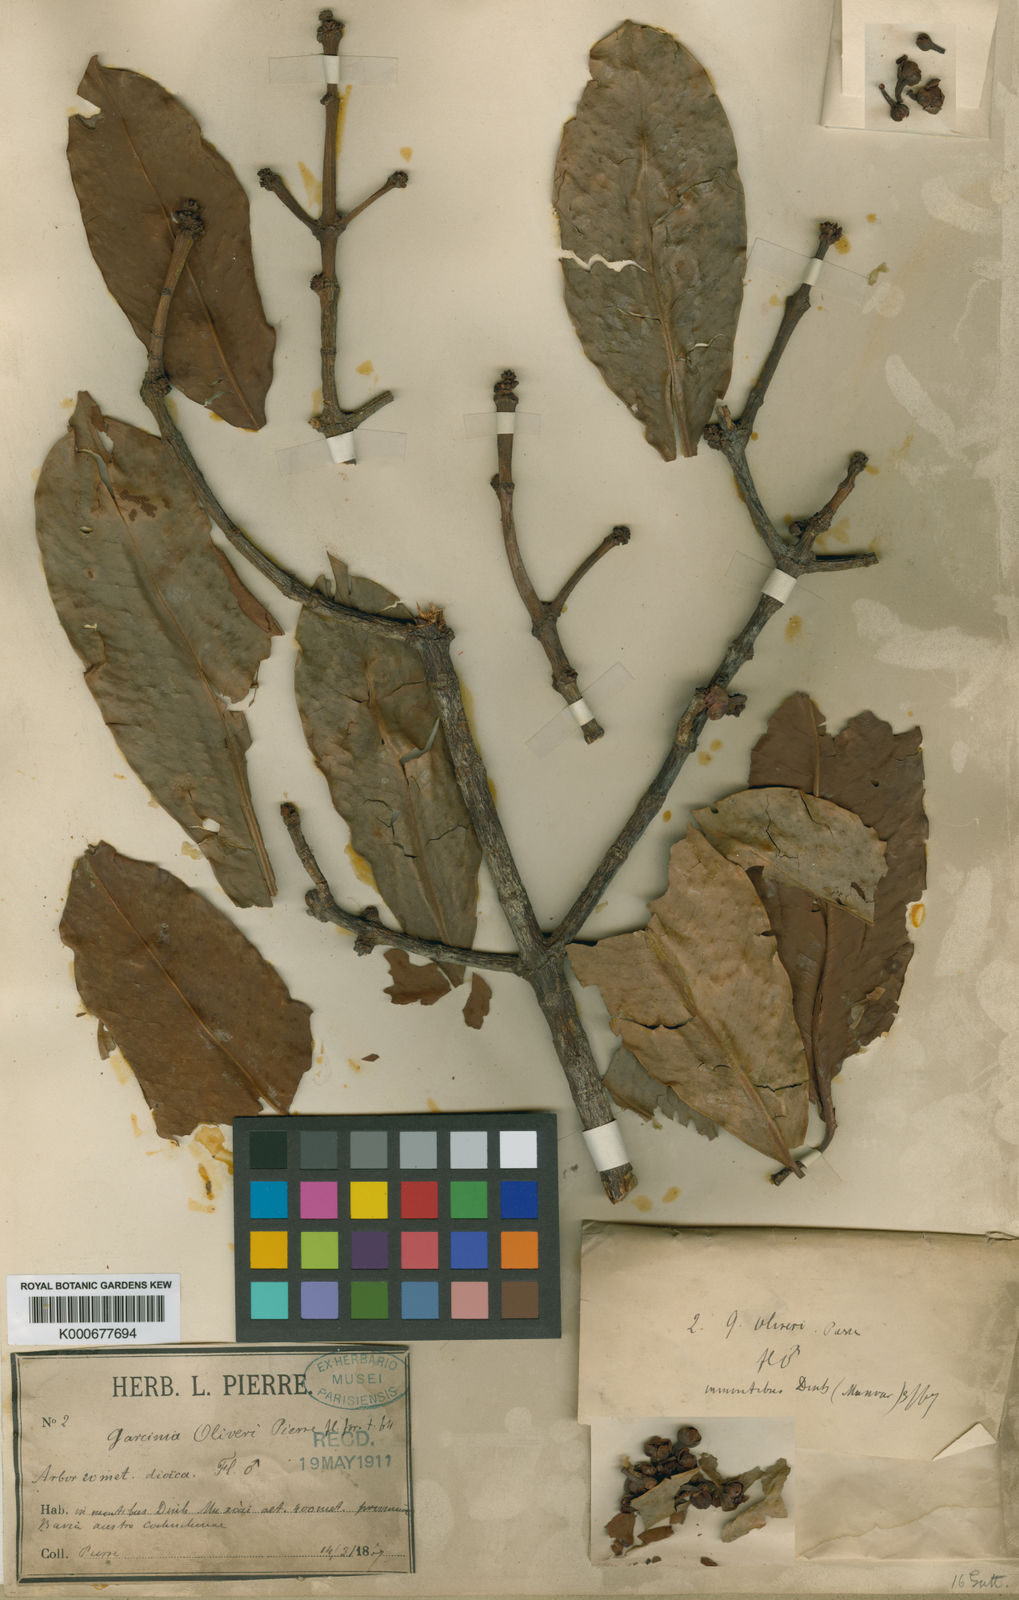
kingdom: Plantae
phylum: Tracheophyta
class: Magnoliopsida
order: Malpighiales
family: Clusiaceae
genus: Garcinia
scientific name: Garcinia oliveri
